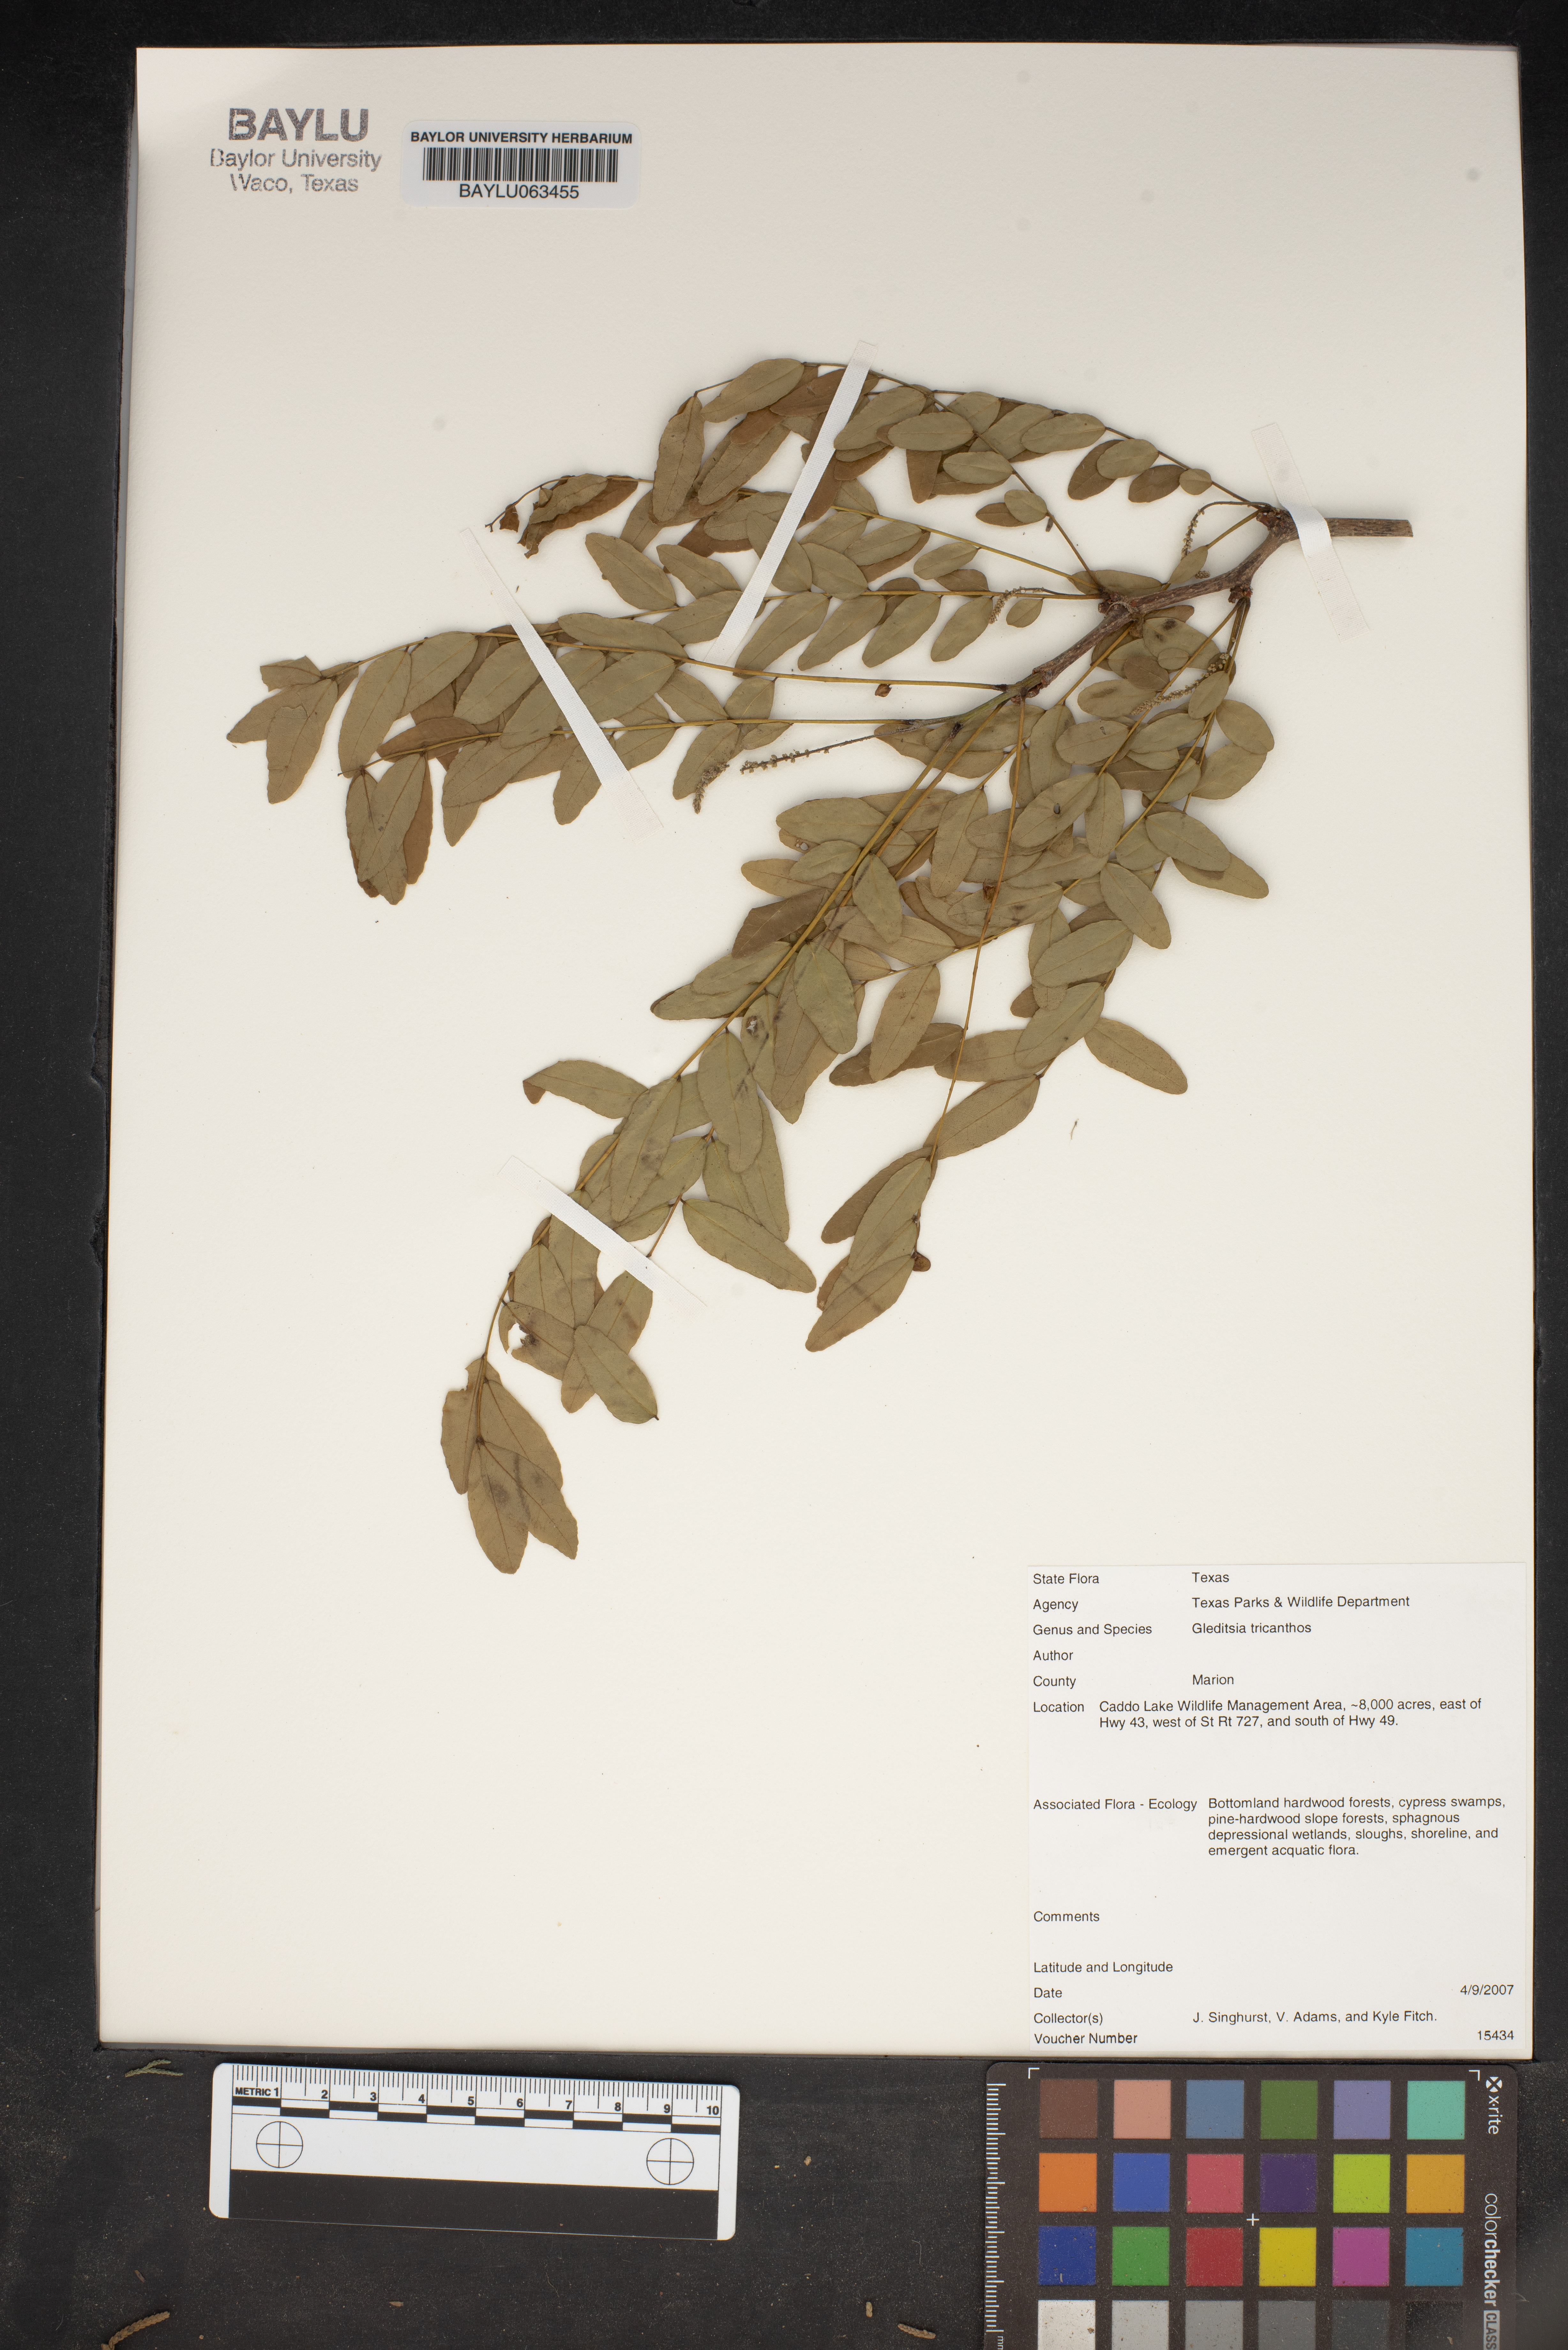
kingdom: Plantae
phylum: Tracheophyta
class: Magnoliopsida
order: Fabales
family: Fabaceae
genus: Gleditsia
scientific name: Gleditsia triacanthos
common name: Common honeylocust
